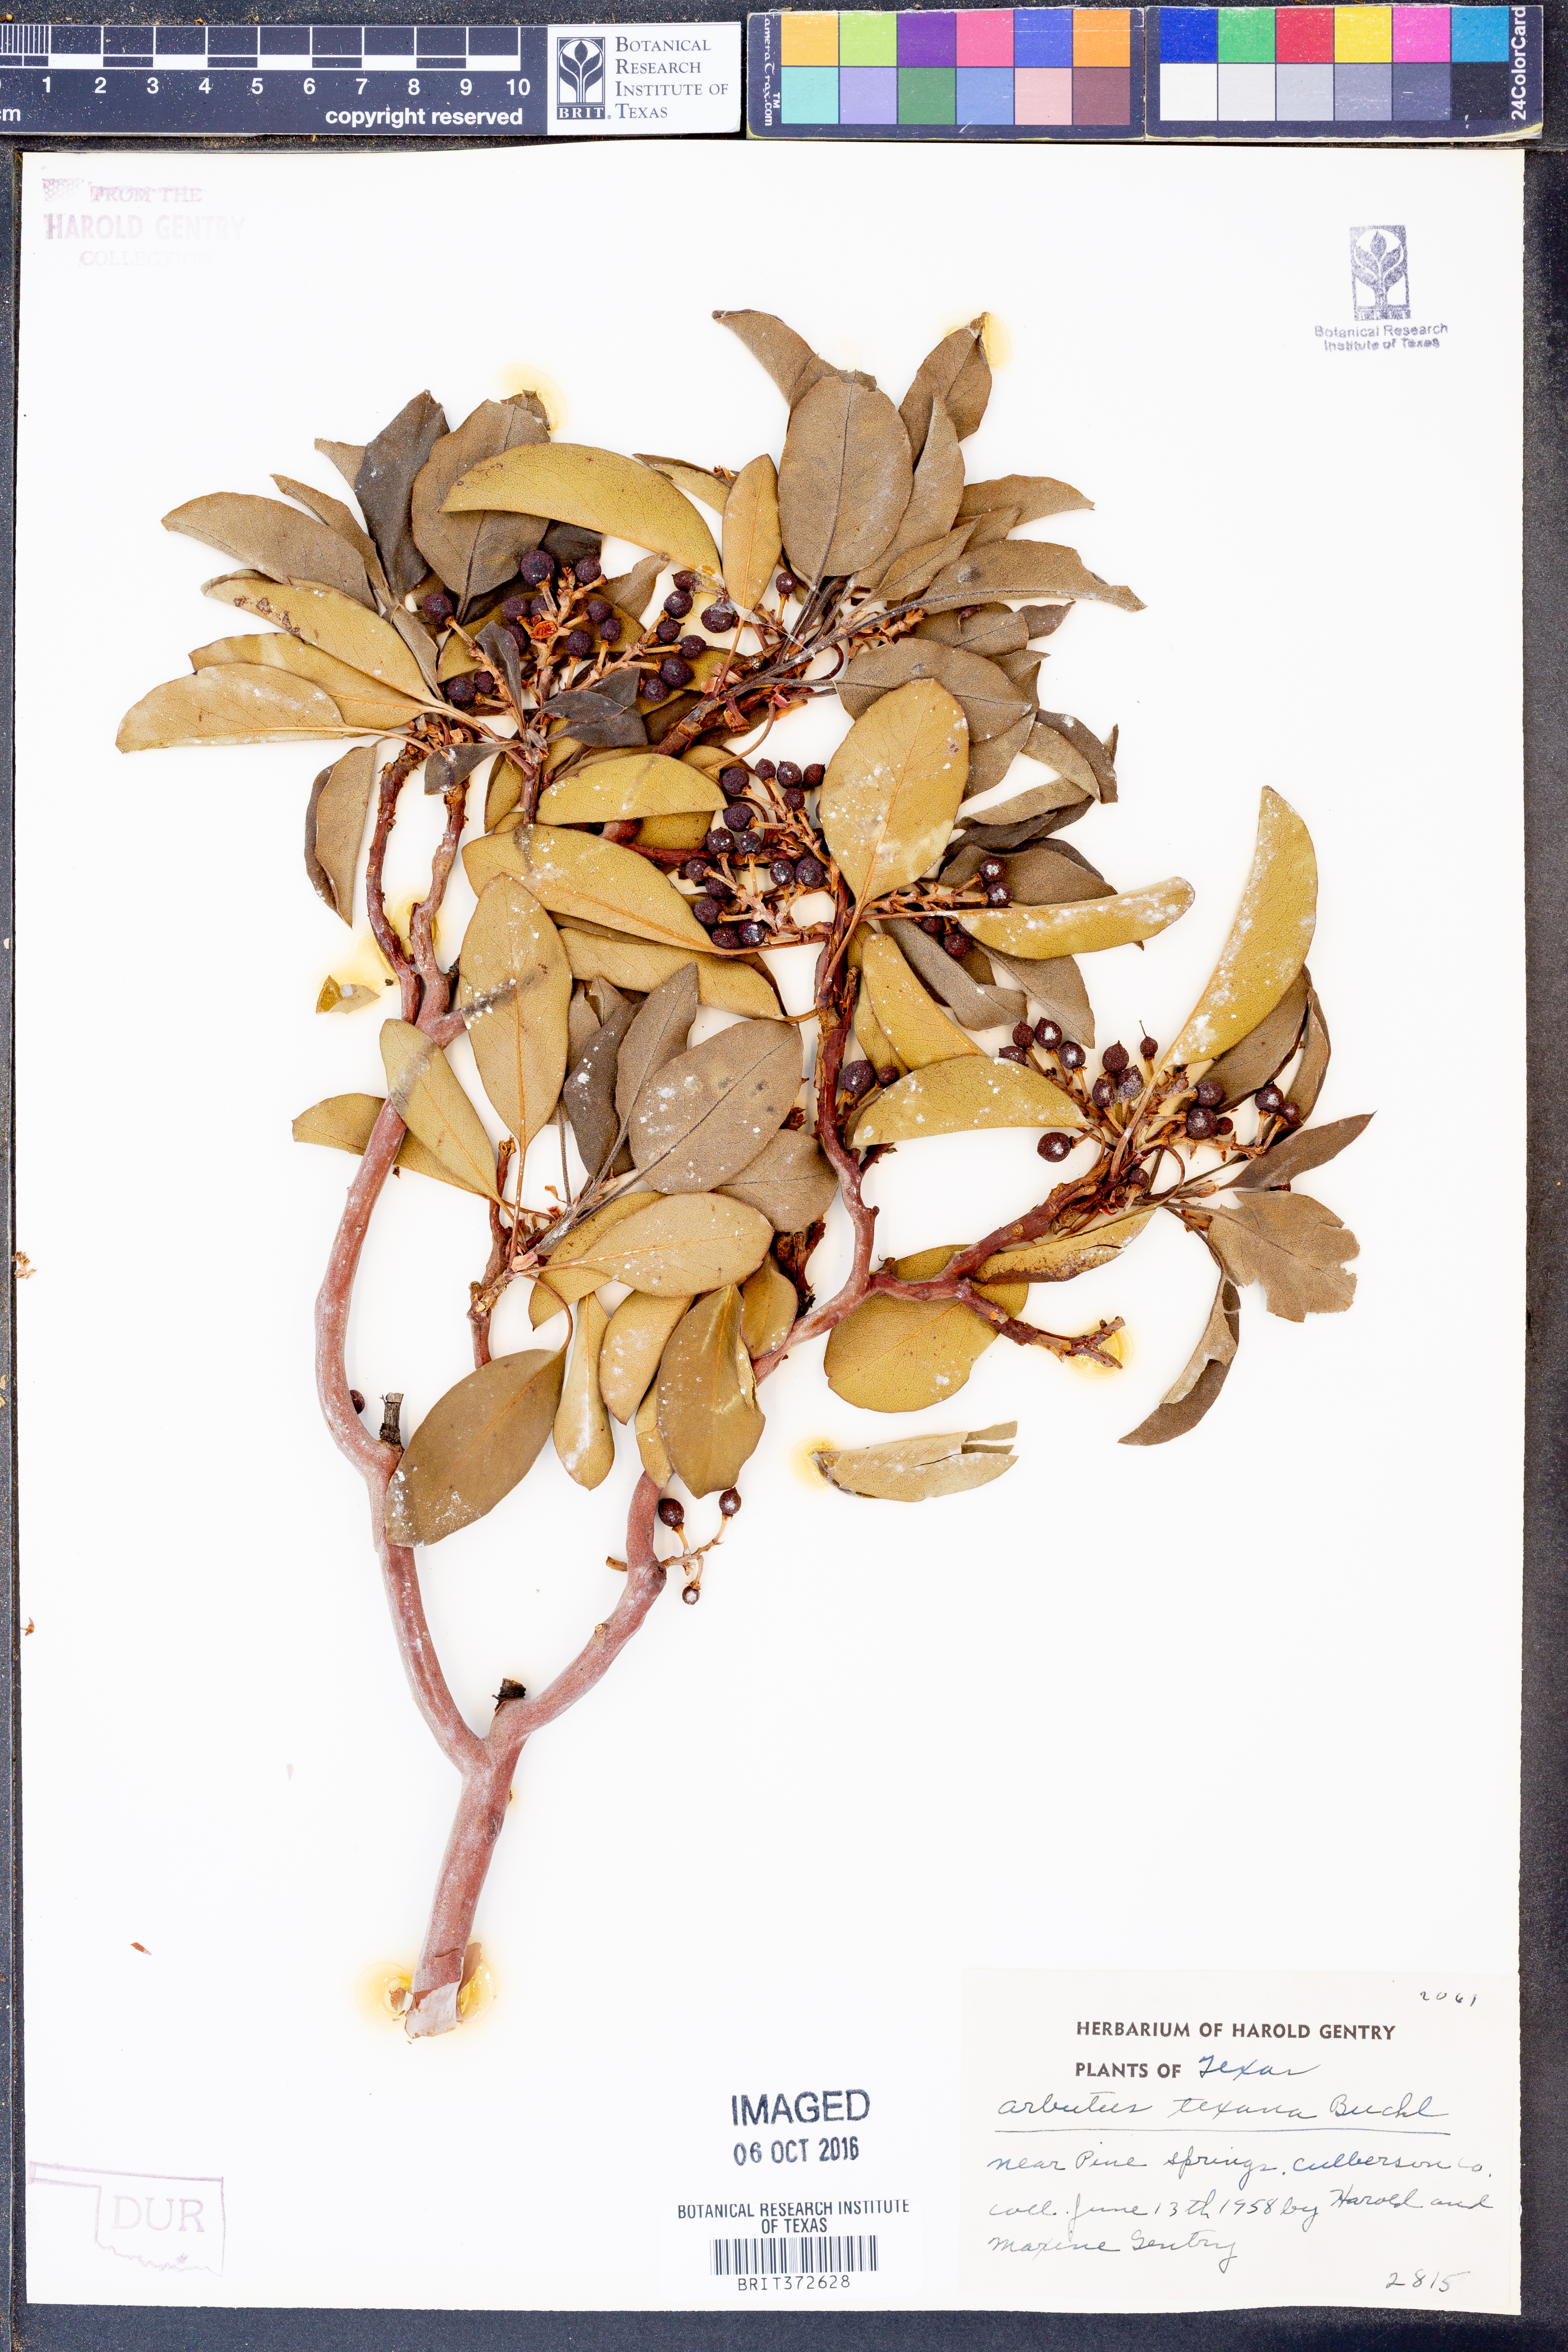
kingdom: Plantae
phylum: Tracheophyta
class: Magnoliopsida
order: Ericales
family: Ericaceae
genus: Arbutus
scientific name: Arbutus xalapensis
